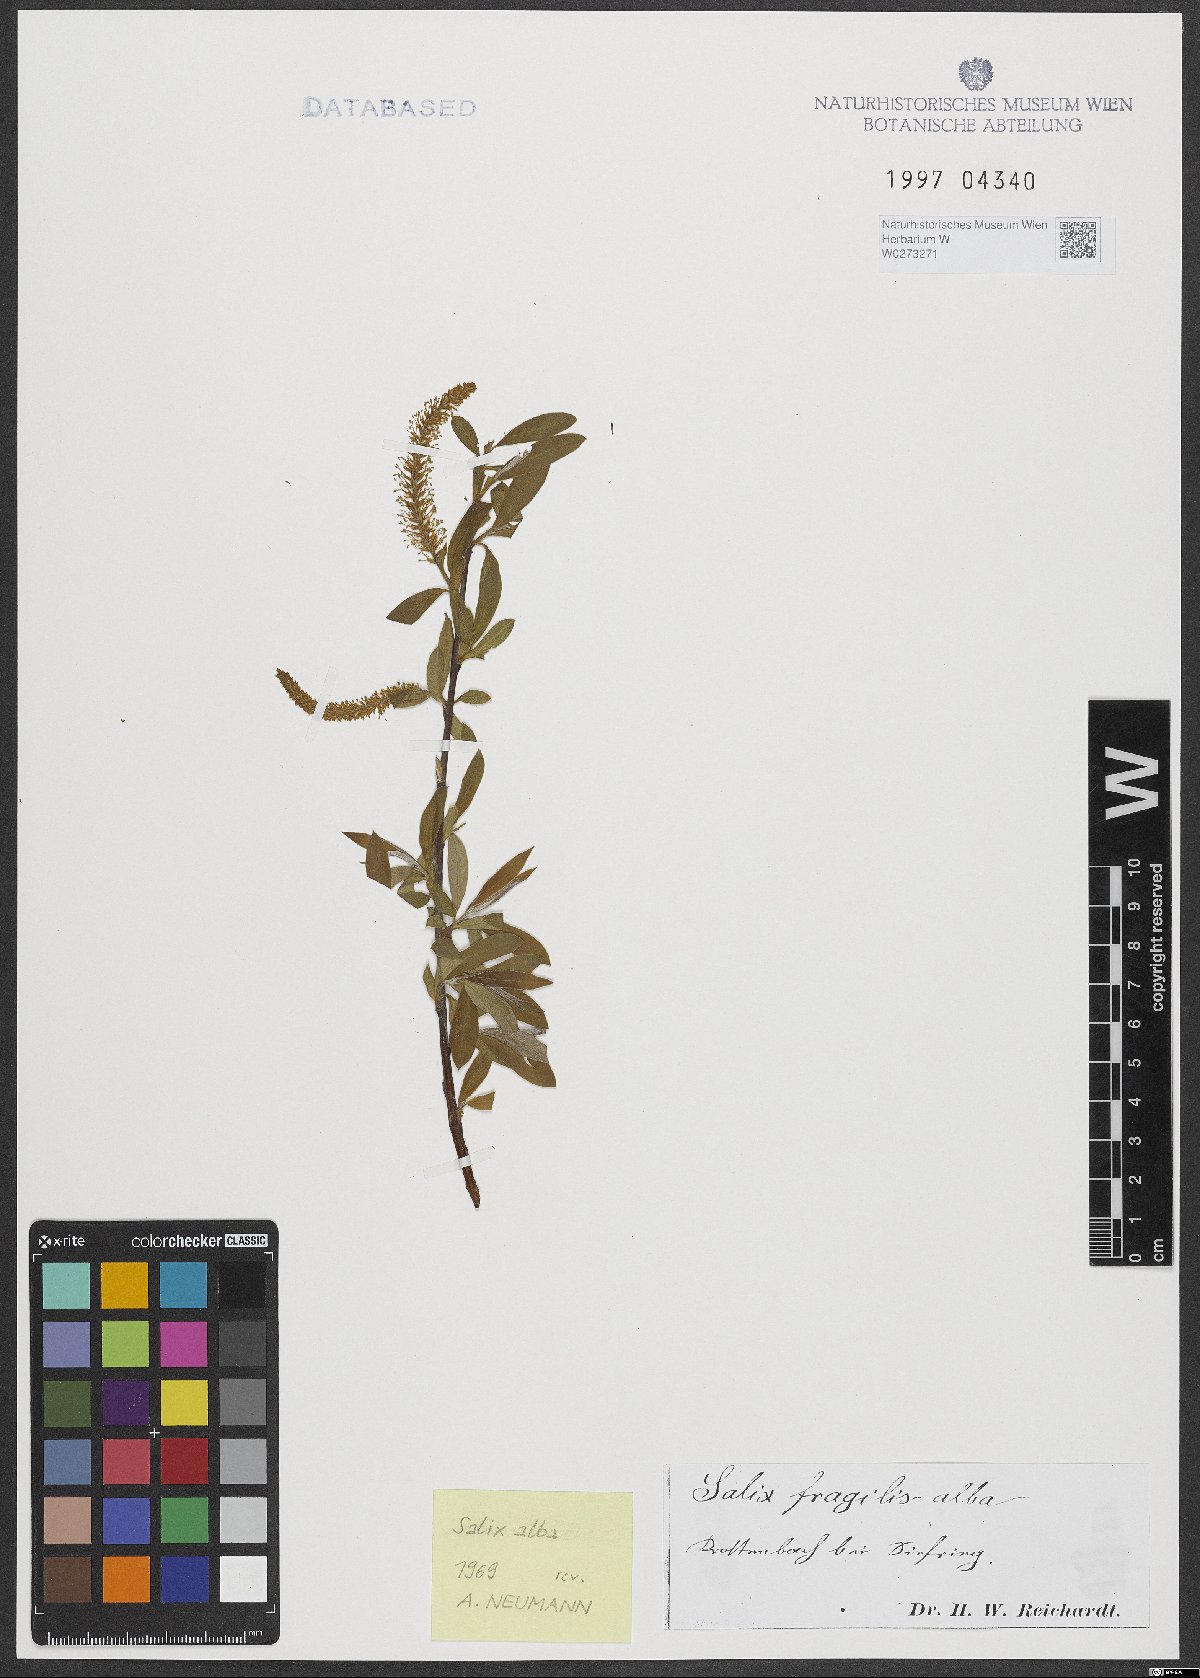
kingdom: Plantae
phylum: Tracheophyta
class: Magnoliopsida
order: Malpighiales
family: Salicaceae
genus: Salix
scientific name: Salix alba
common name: White willow
